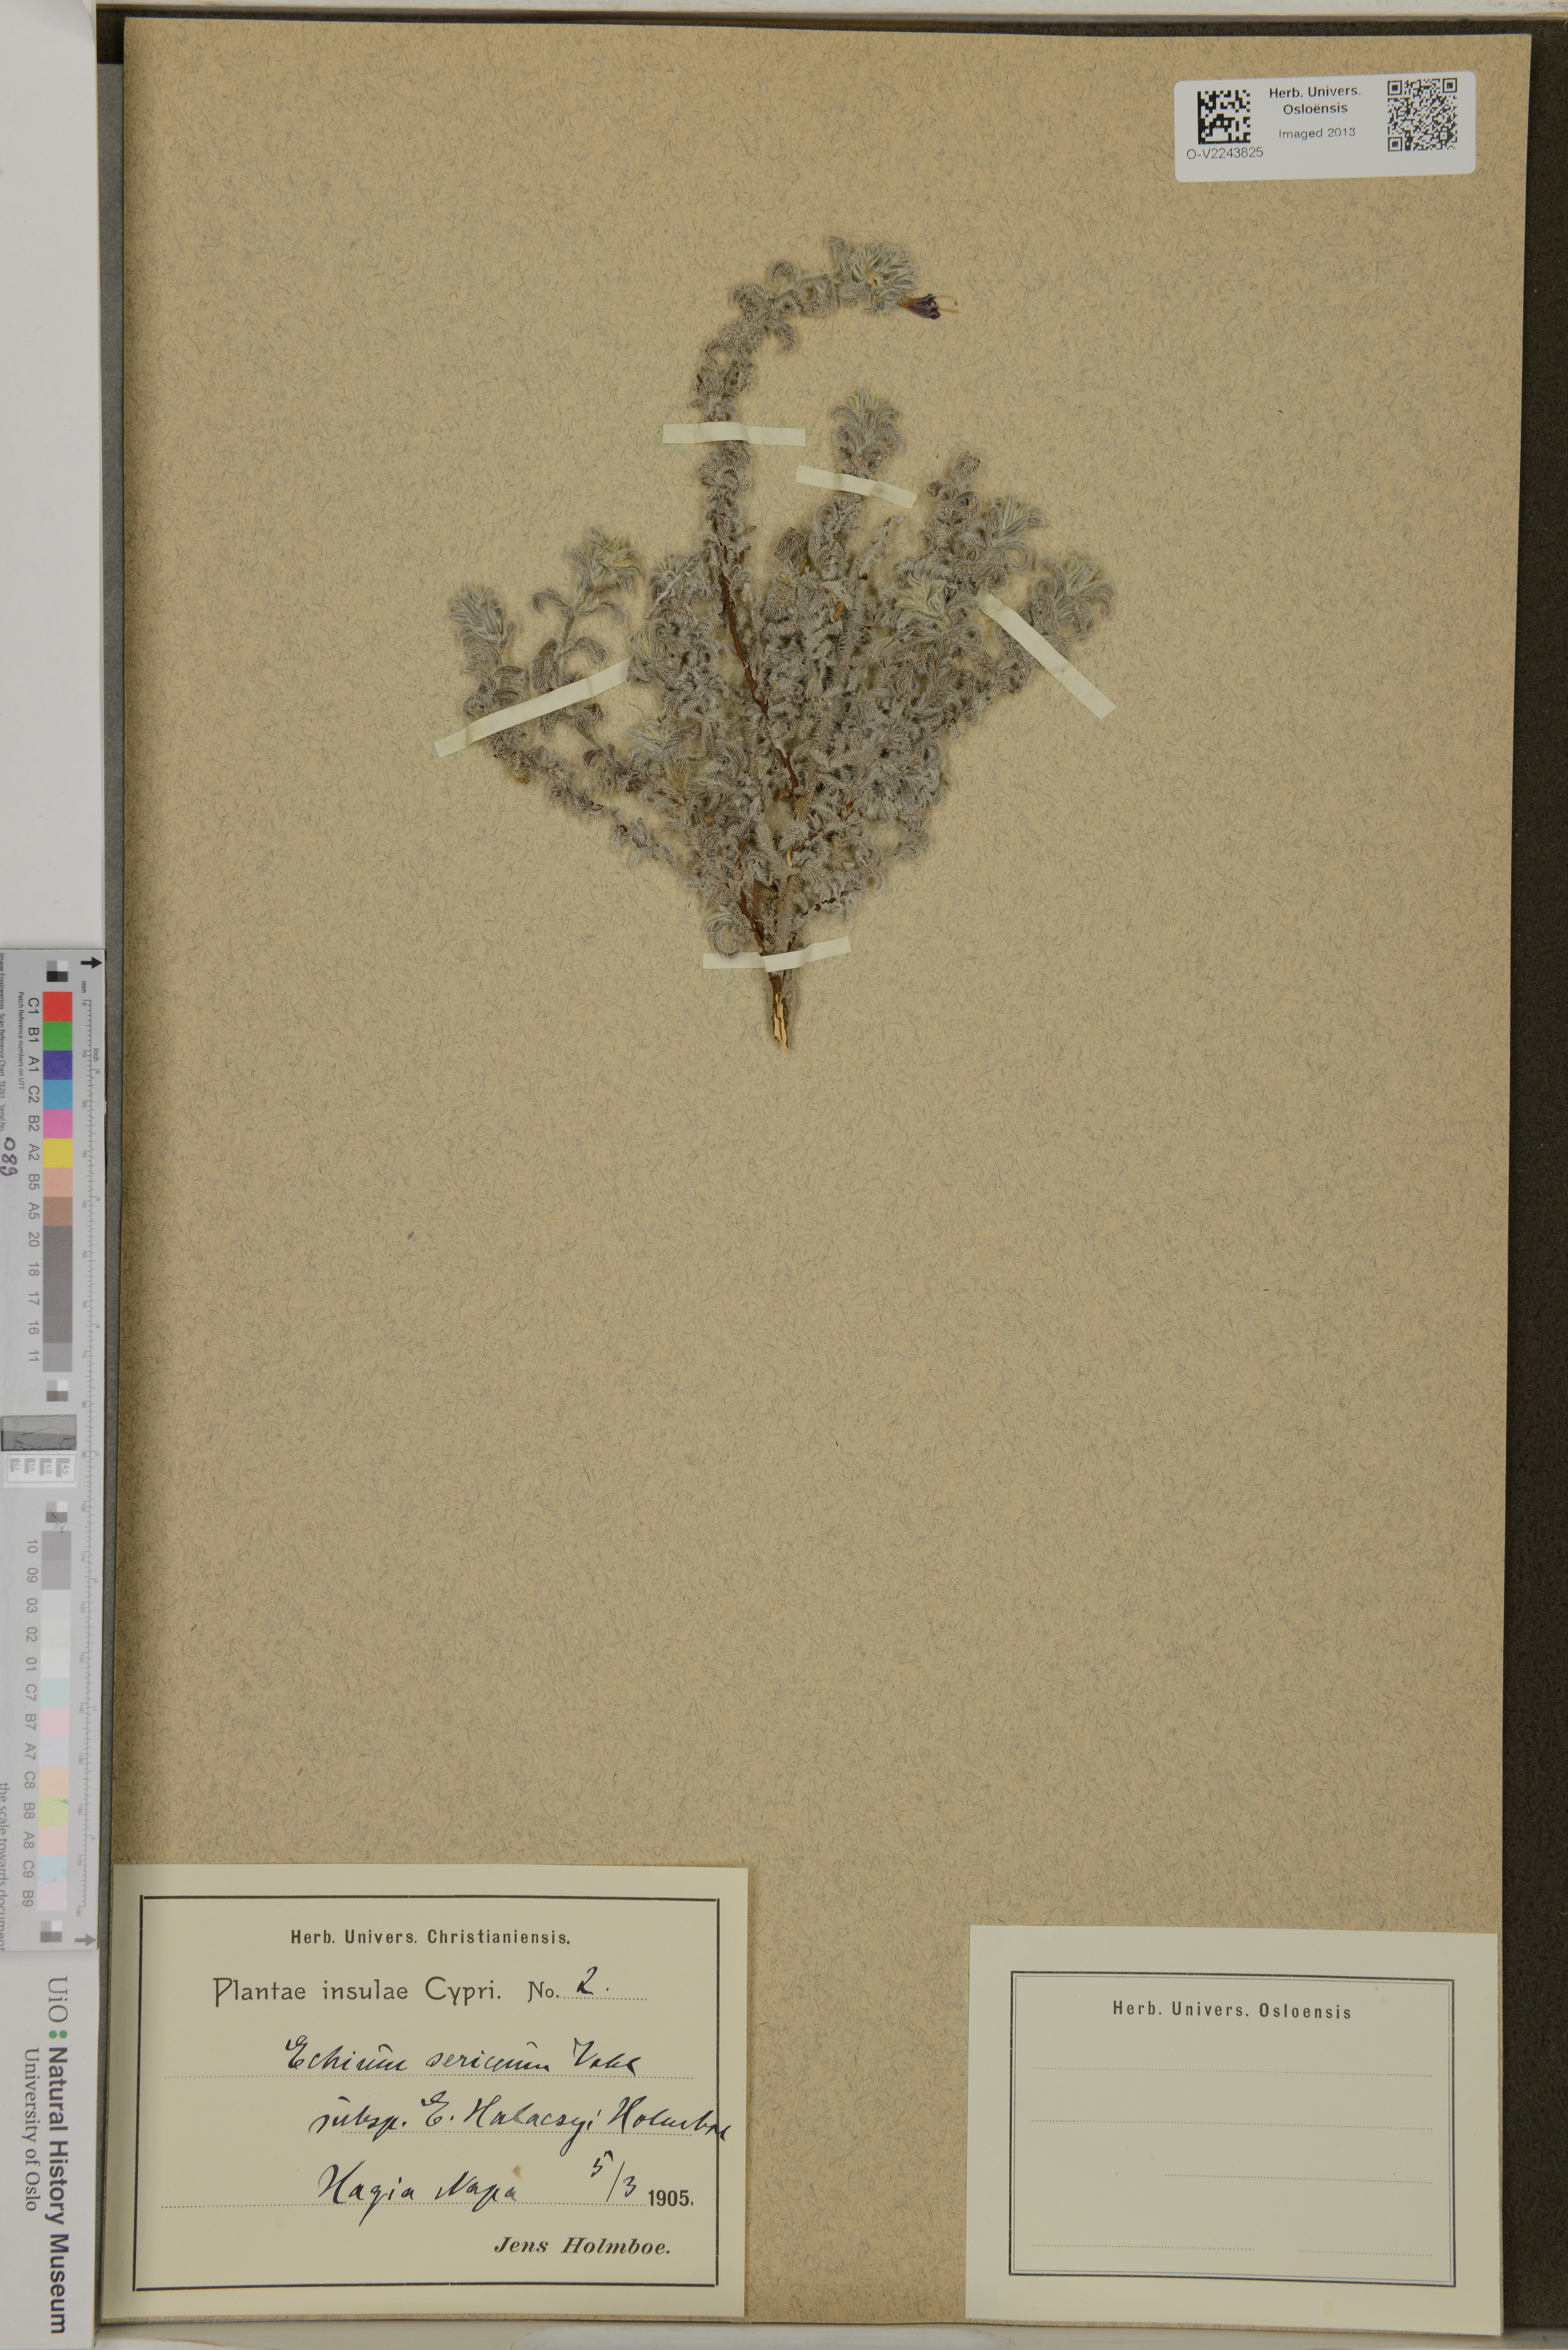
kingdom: Plantae
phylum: Tracheophyta
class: Magnoliopsida
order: Boraginales
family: Boraginaceae
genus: Echium
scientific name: Echium angustifolium
